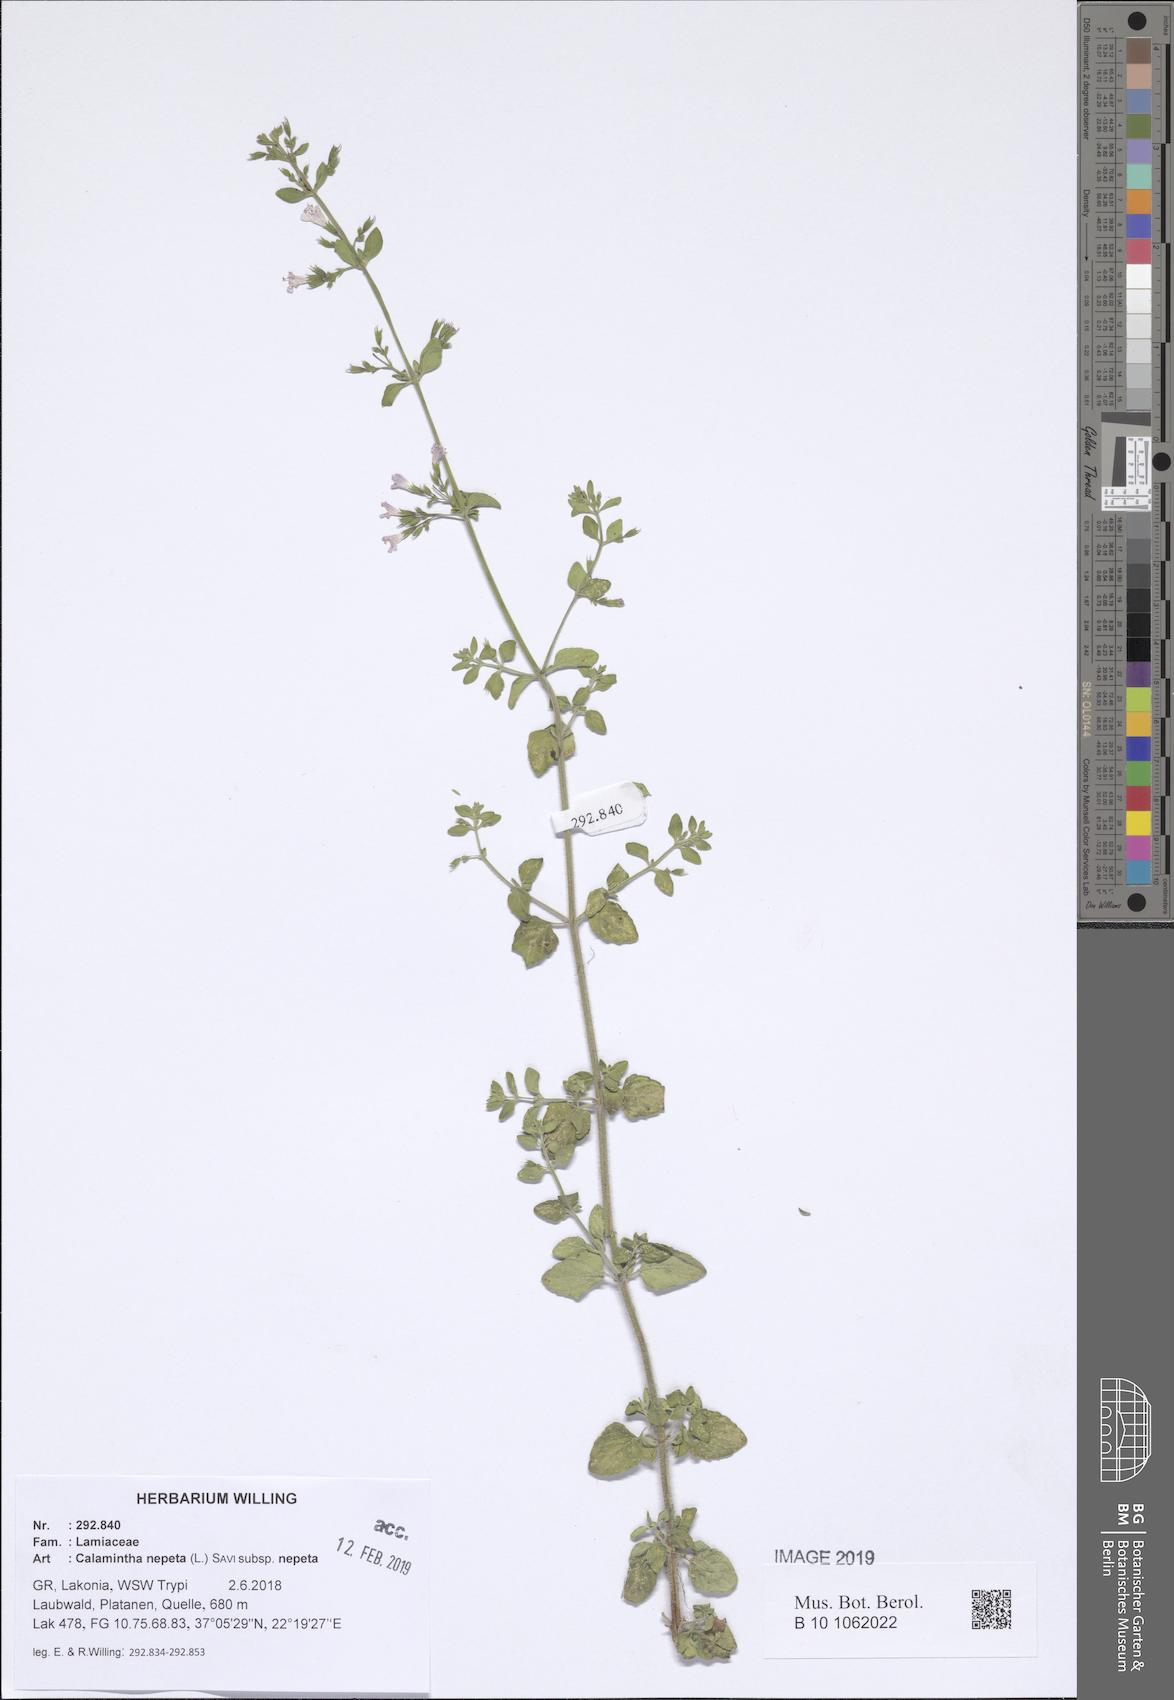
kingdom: Plantae
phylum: Tracheophyta
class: Magnoliopsida
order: Lamiales
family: Lamiaceae
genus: Clinopodium
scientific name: Clinopodium nepeta
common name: Lesser calamint
